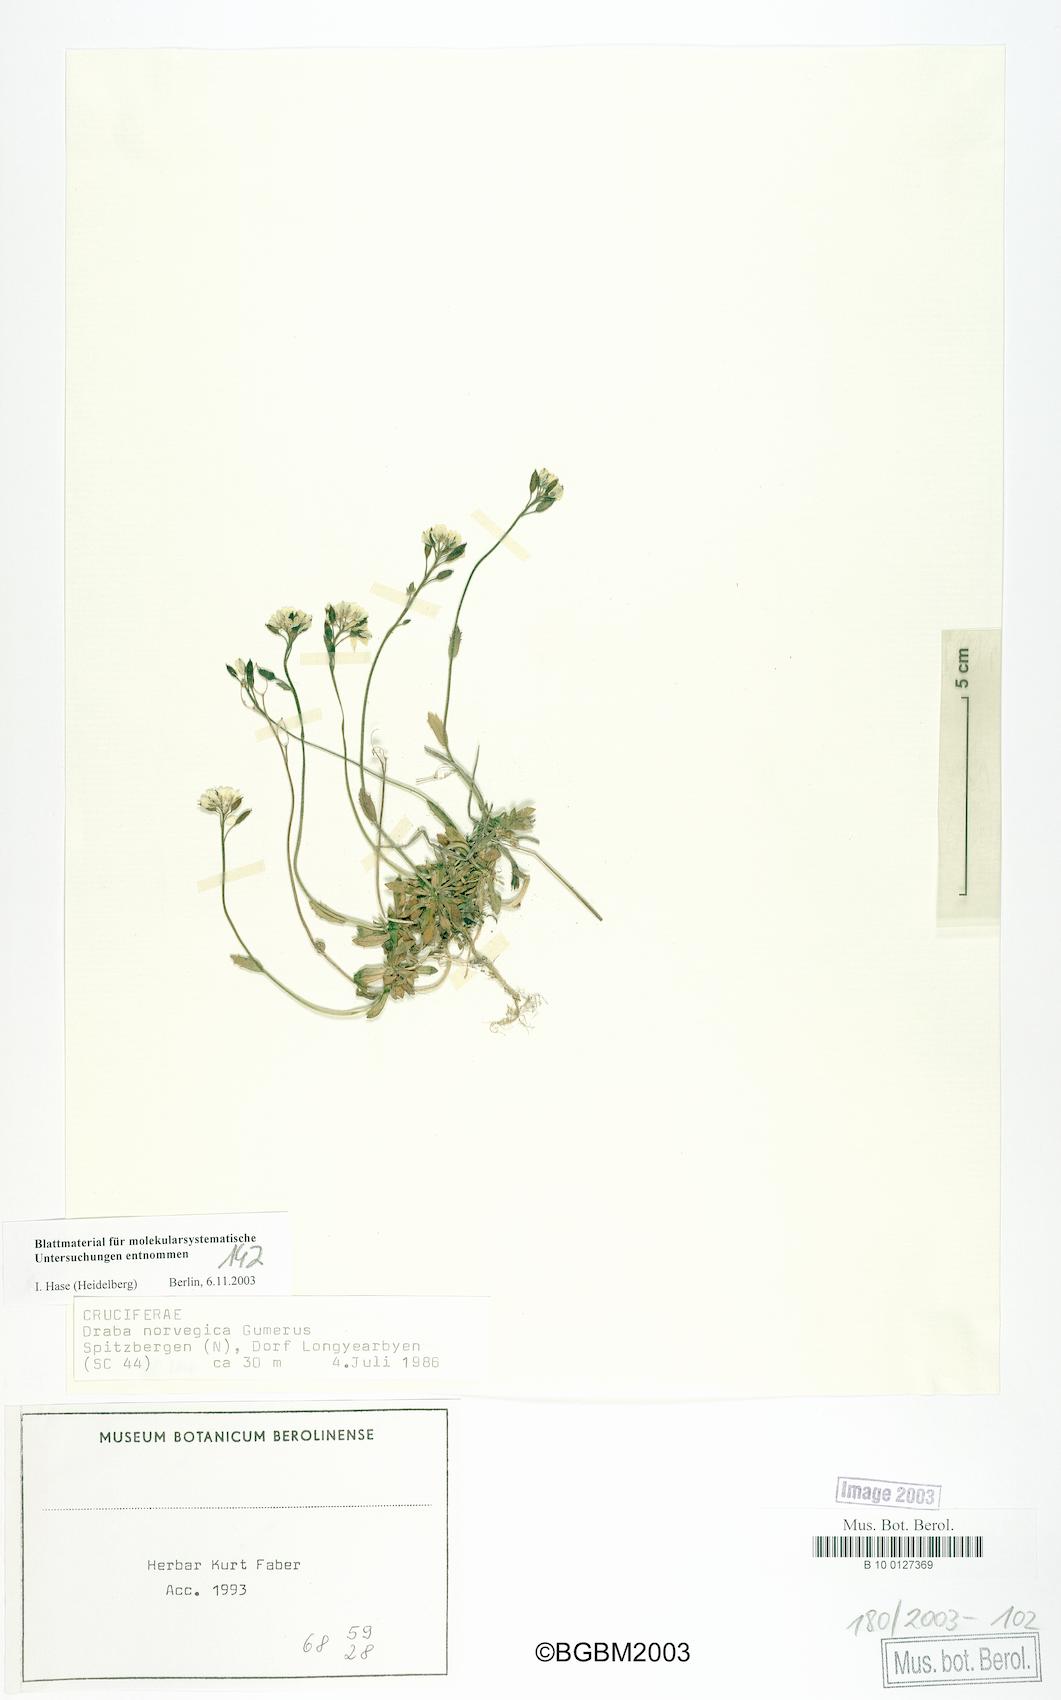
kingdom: Plantae
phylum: Tracheophyta
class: Magnoliopsida
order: Brassicales
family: Brassicaceae
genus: Draba
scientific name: Draba norvegica
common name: Rock whitlowgrass
